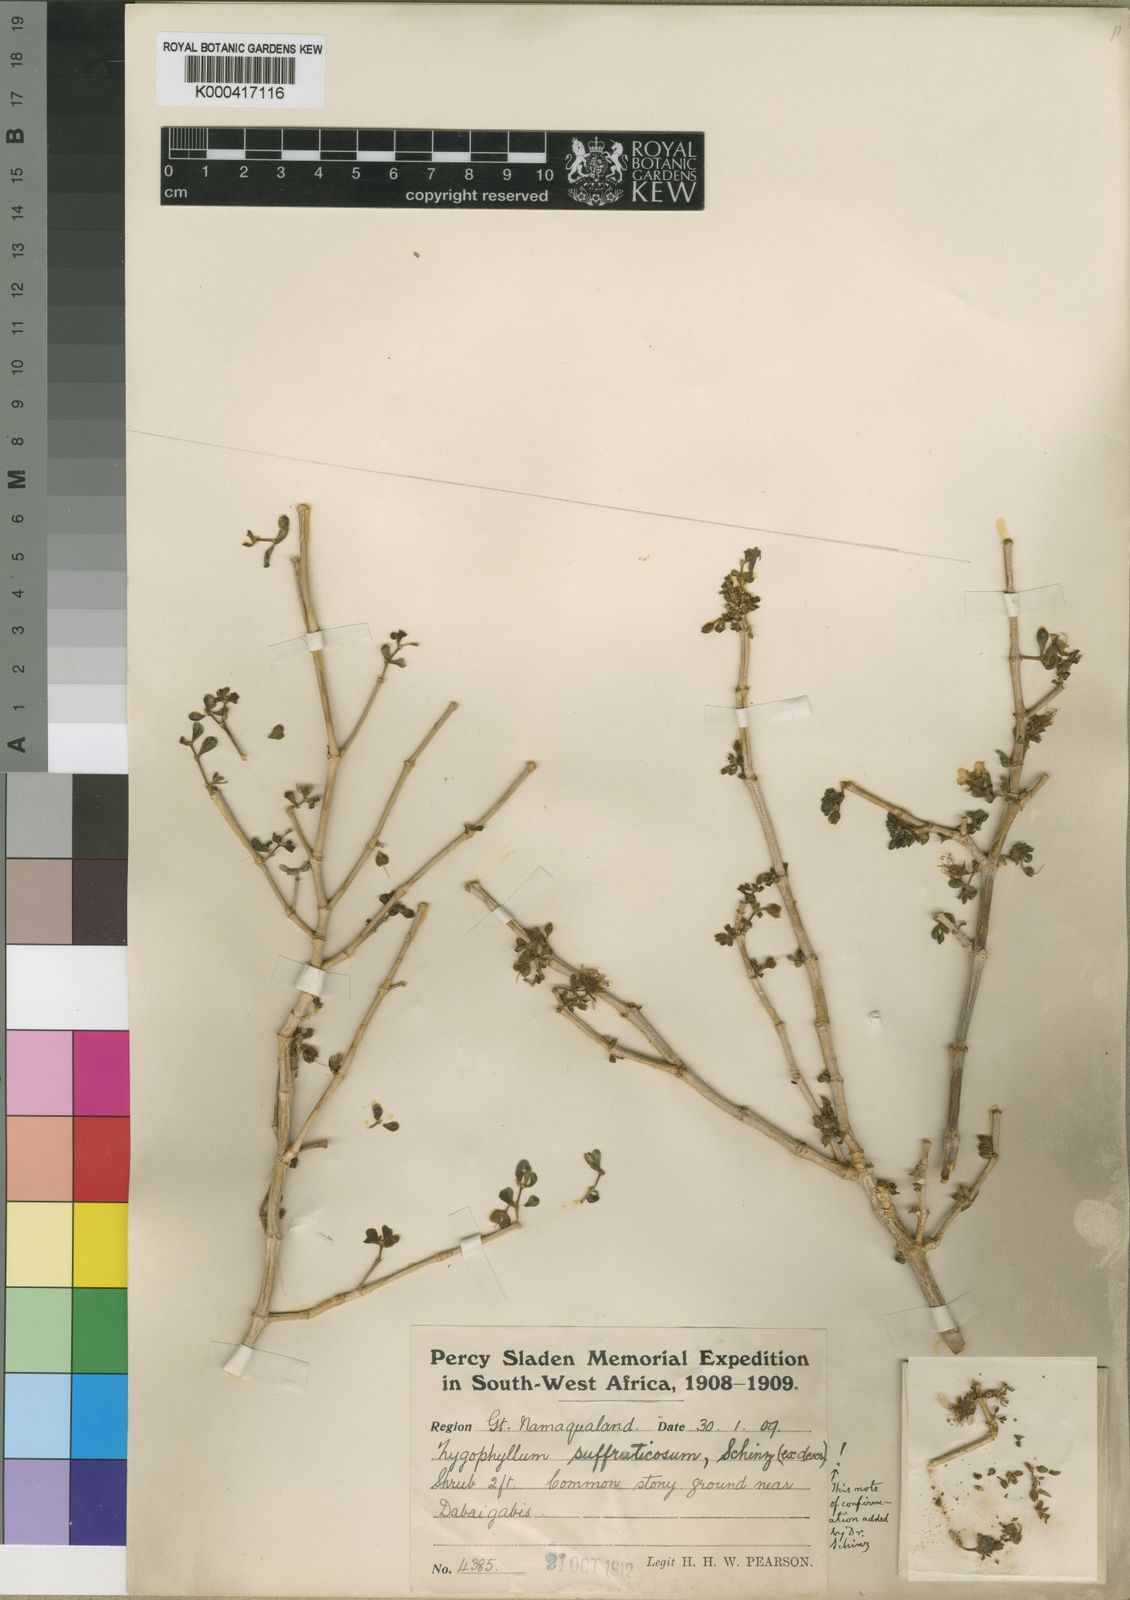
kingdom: Plantae
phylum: Tracheophyta
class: Magnoliopsida
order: Zygophyllales
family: Zygophyllaceae
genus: Tetraena
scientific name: Tetraena rigida
